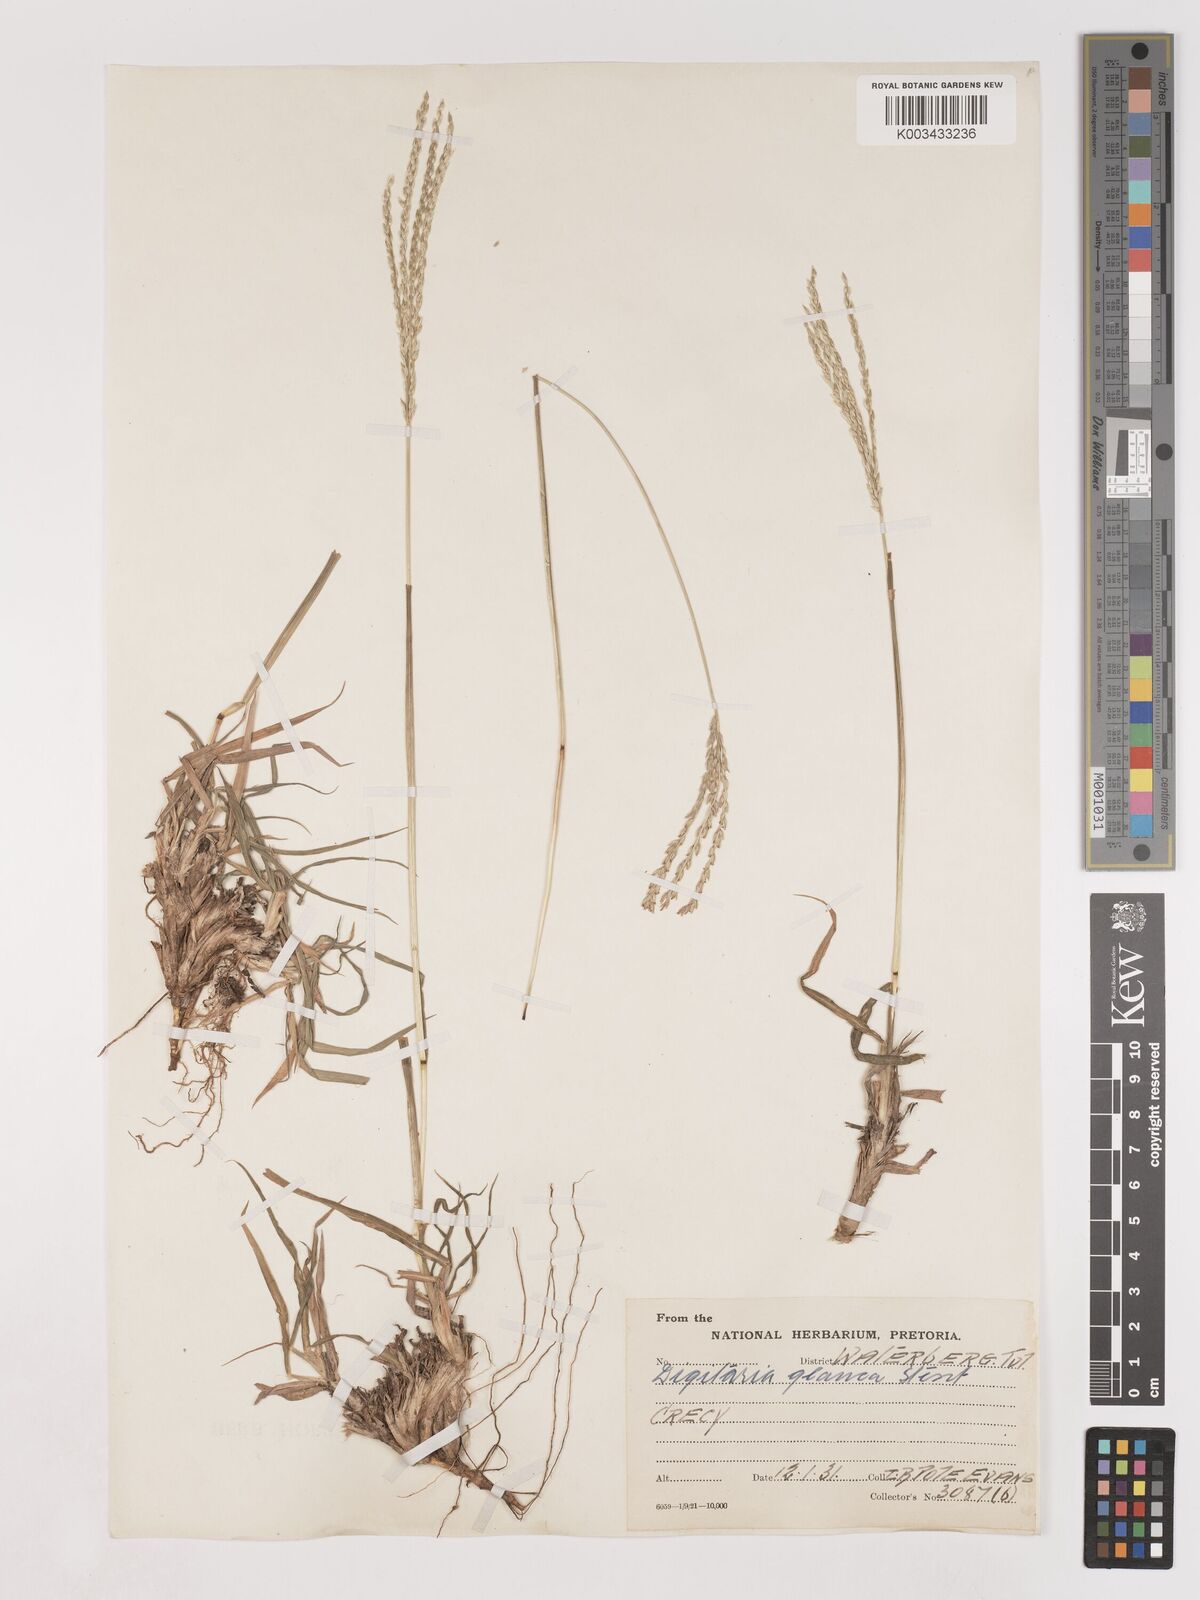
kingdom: Plantae
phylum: Tracheophyta
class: Liliopsida
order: Poales
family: Poaceae
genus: Digitaria
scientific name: Digitaria eriantha
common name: Digitgrass
